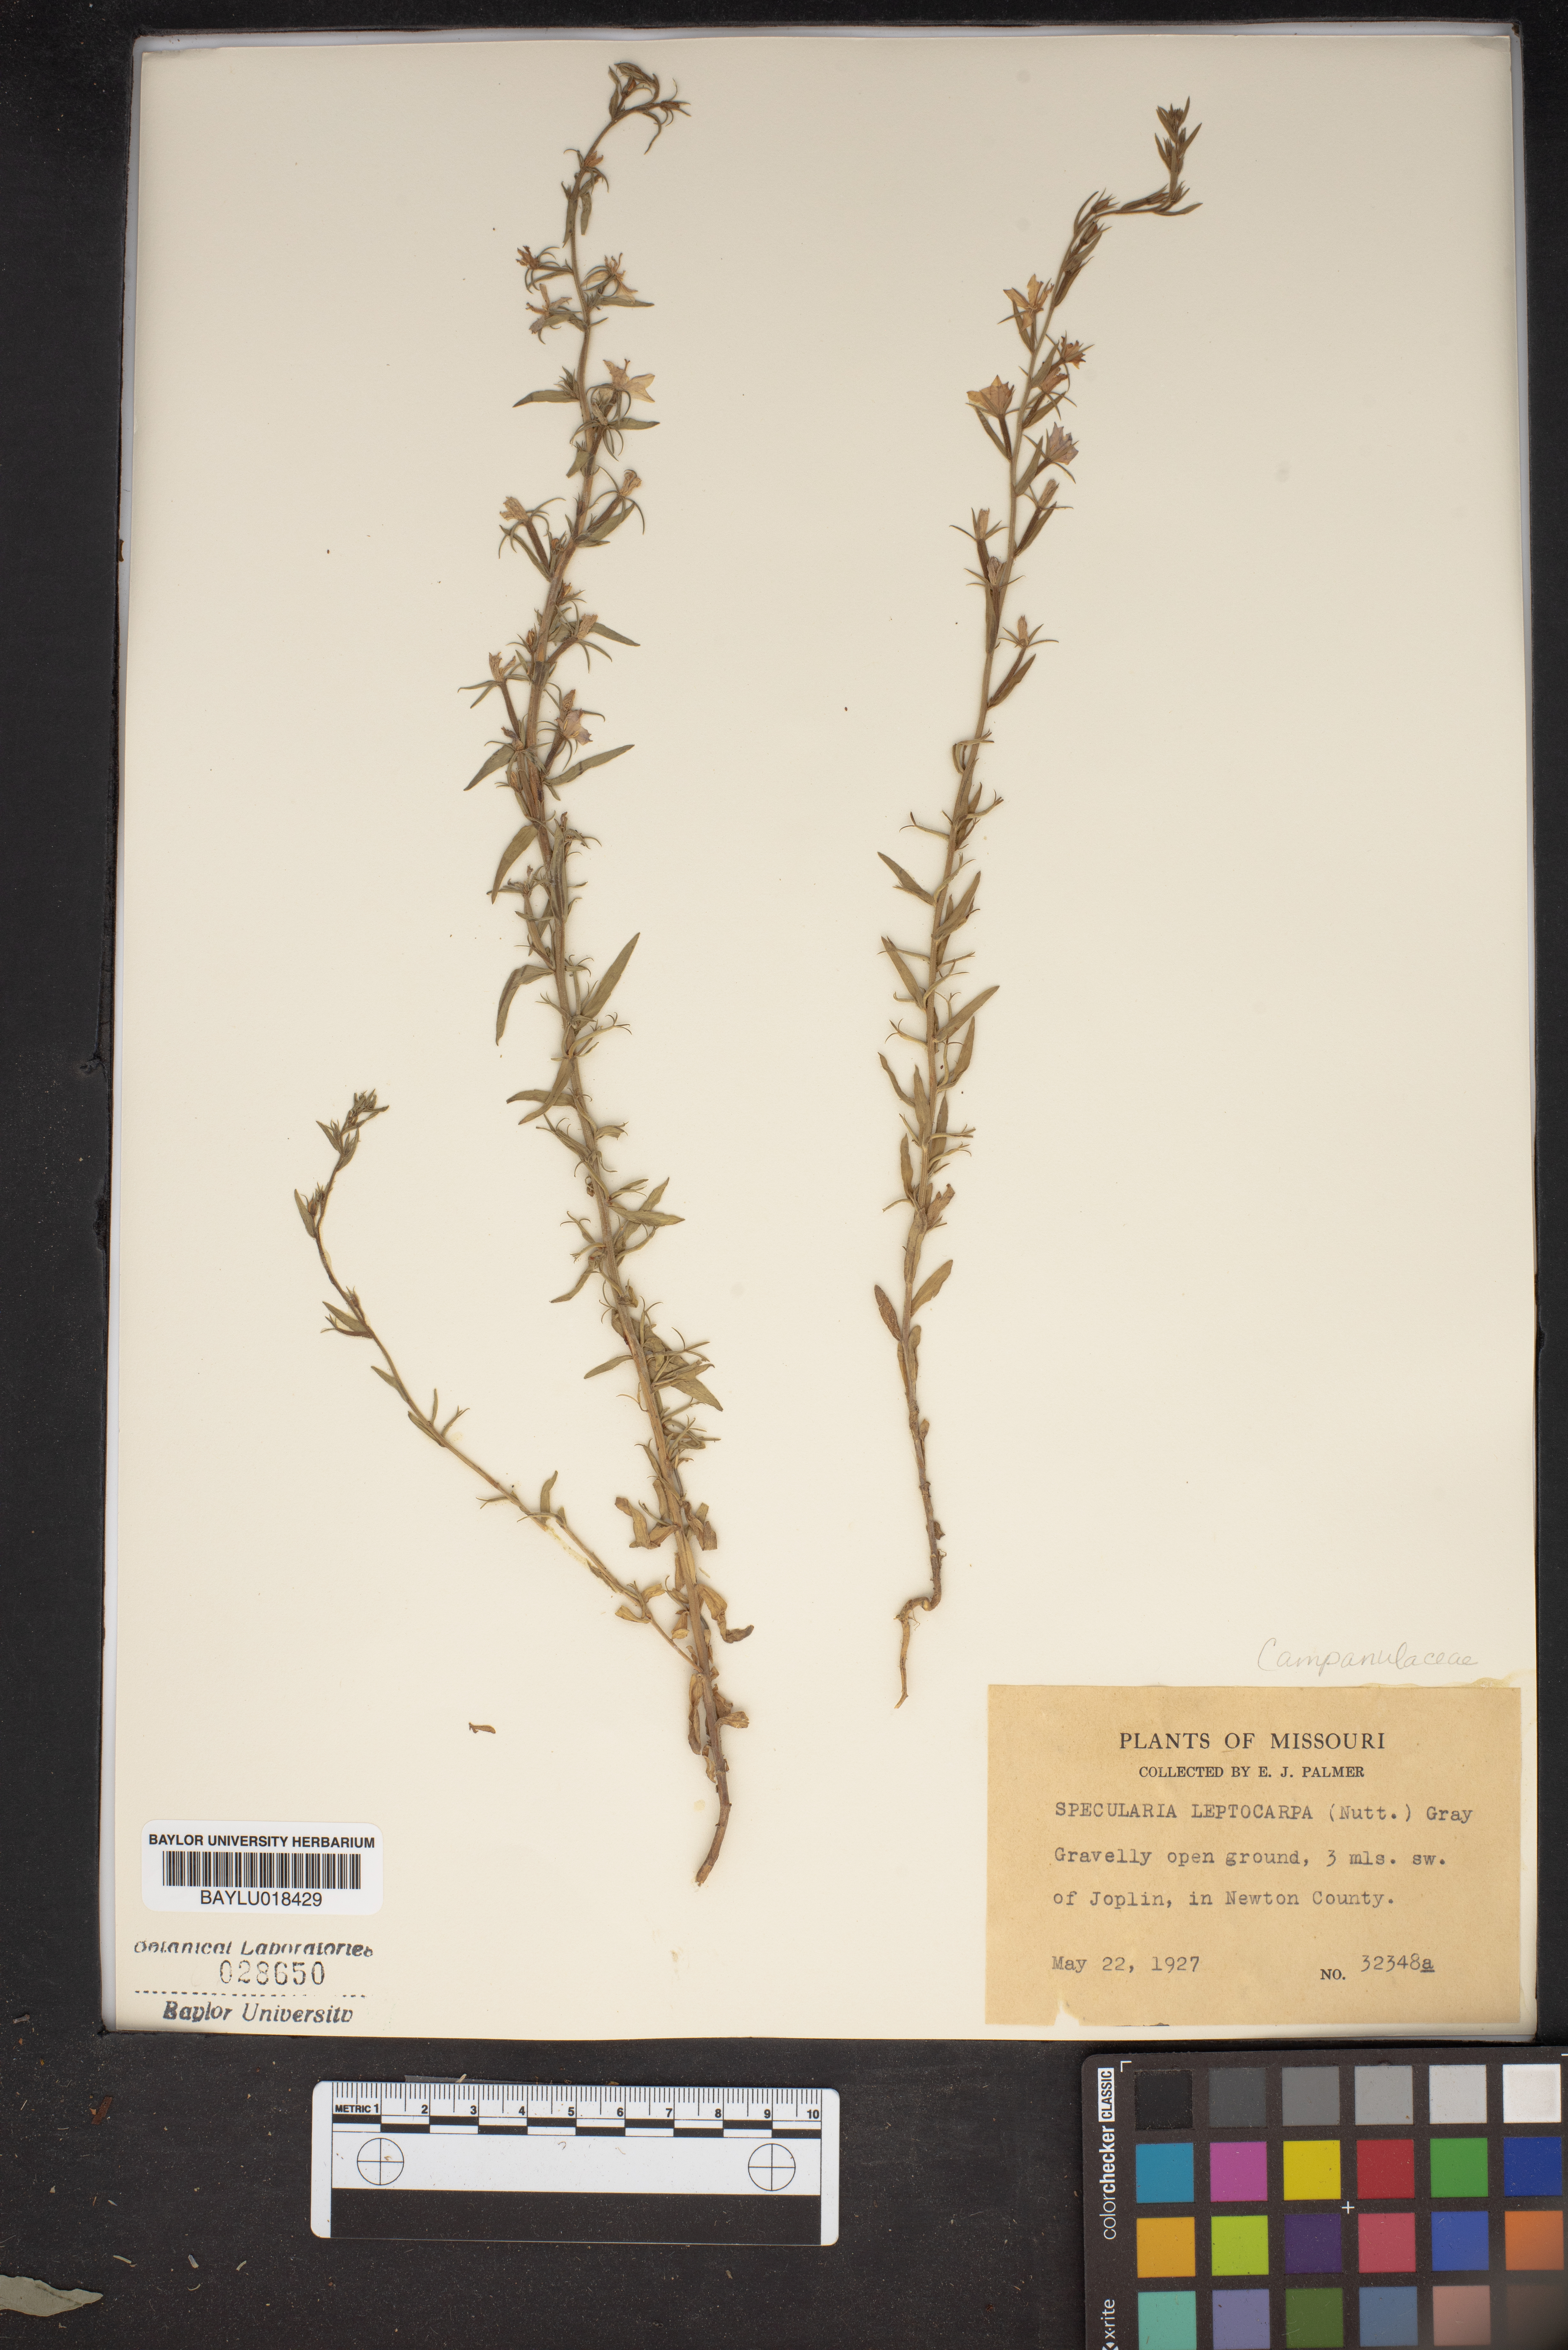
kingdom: Plantae
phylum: Tracheophyta
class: Magnoliopsida
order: Asterales
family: Campanulaceae
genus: Triodanis
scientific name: Triodanis leptocarpa
